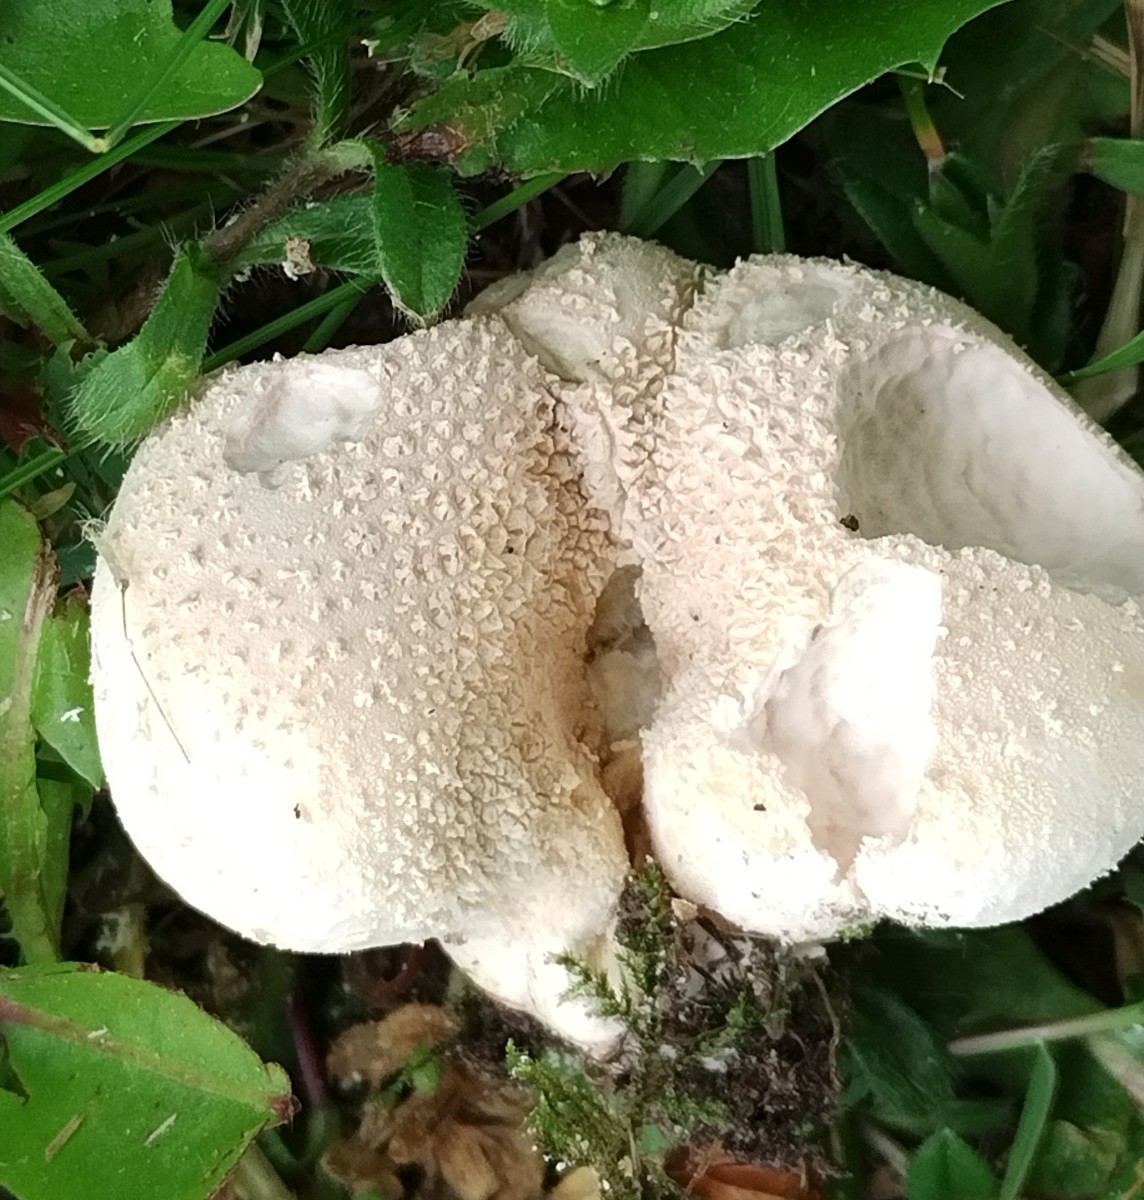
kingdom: Fungi
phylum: Basidiomycota
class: Agaricomycetes
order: Agaricales
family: Lycoperdaceae
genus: Lycoperdon
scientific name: Lycoperdon pratense
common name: flad støvbold
